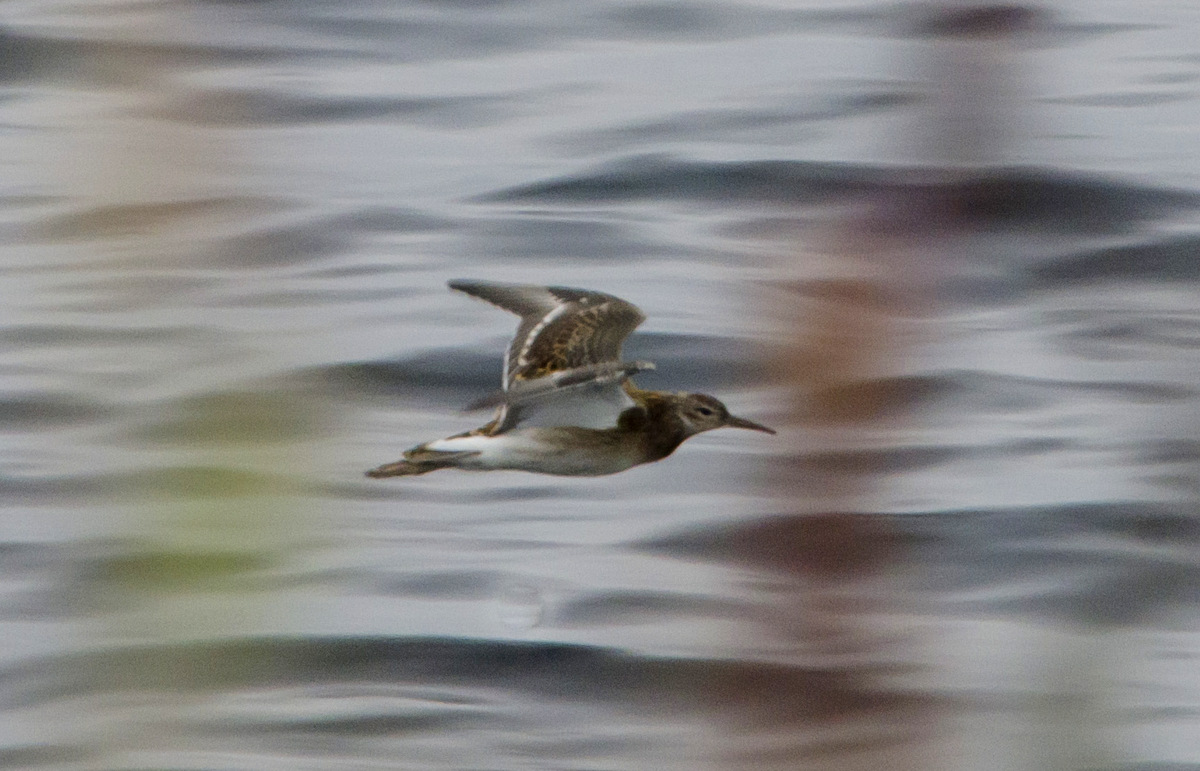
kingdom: Animalia
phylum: Chordata
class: Aves
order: Charadriiformes
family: Scolopacidae
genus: Calidris
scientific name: Calidris pugnax
